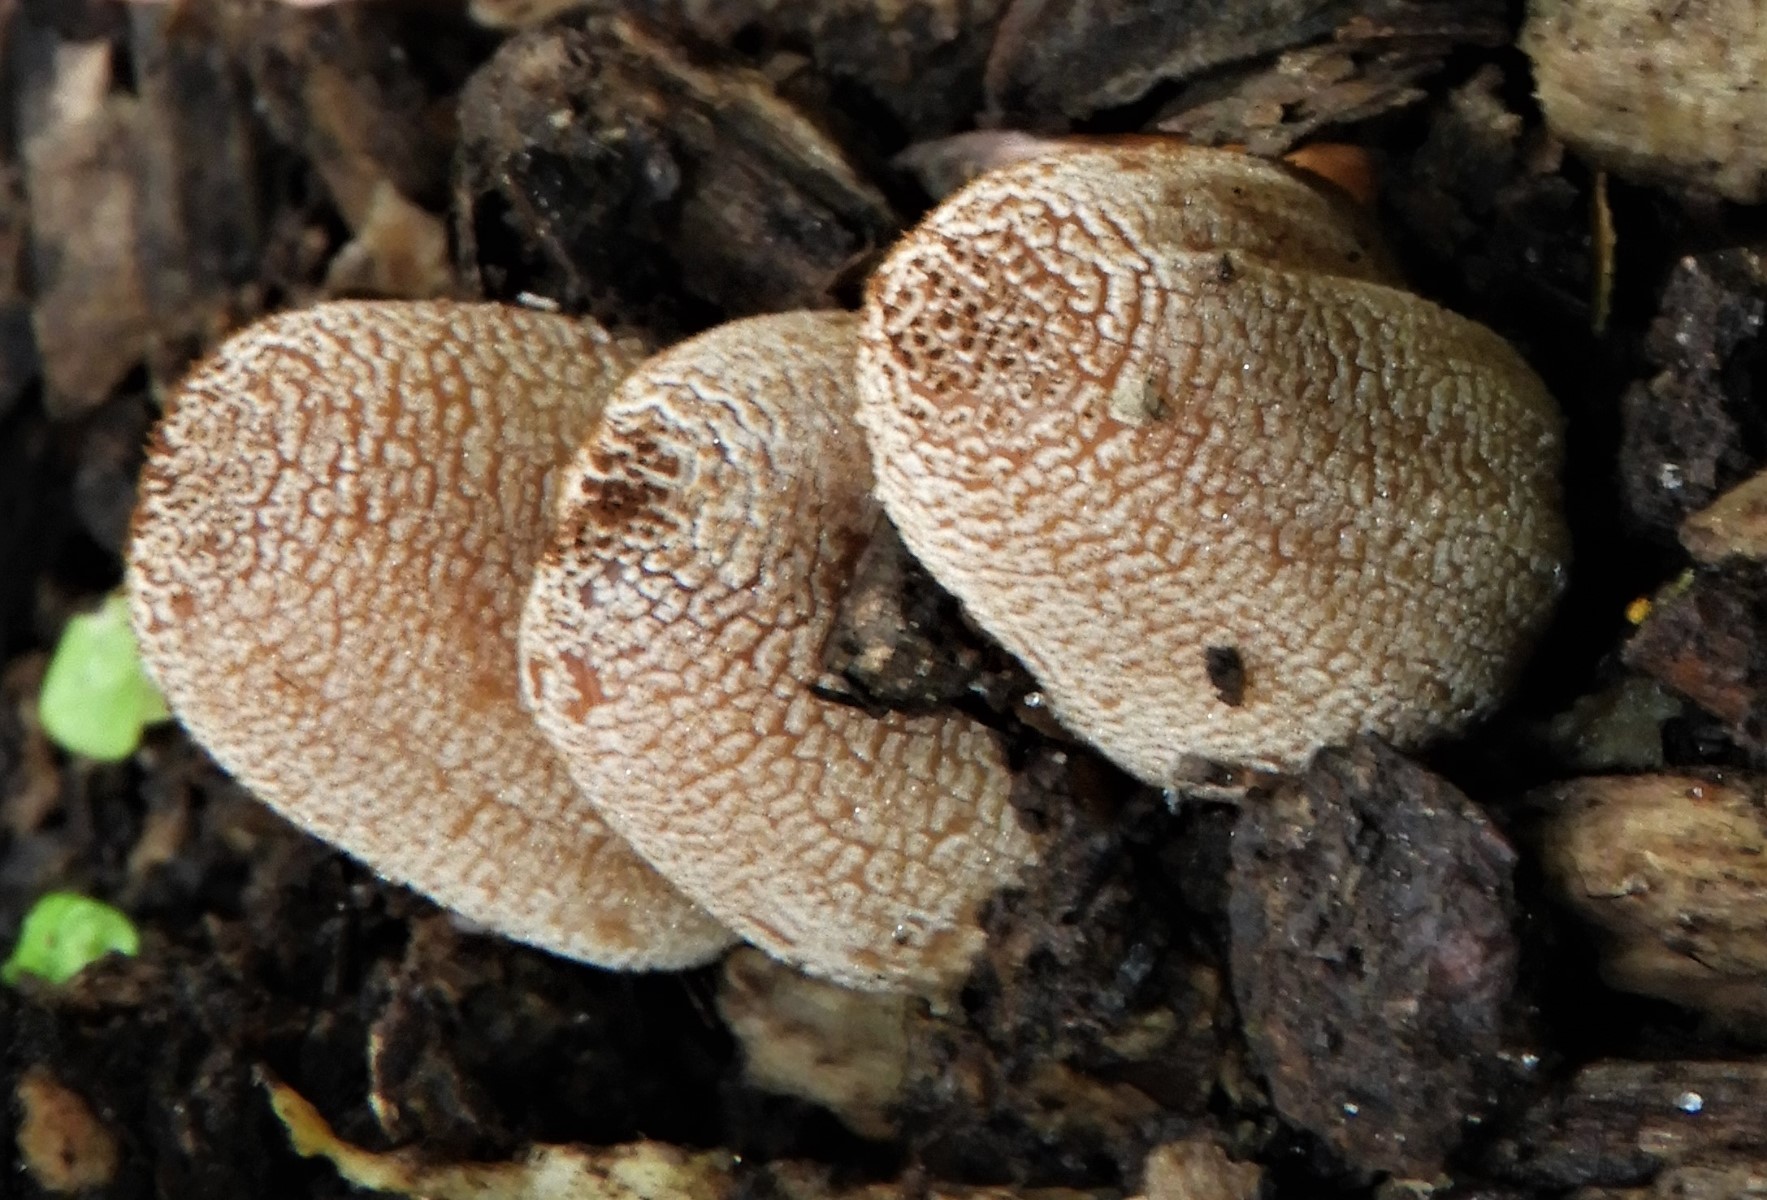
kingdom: Fungi
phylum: Basidiomycota
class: Agaricomycetes
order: Agaricales
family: Psathyrellaceae
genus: Coprinellus
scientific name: Coprinellus
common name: blækhat
